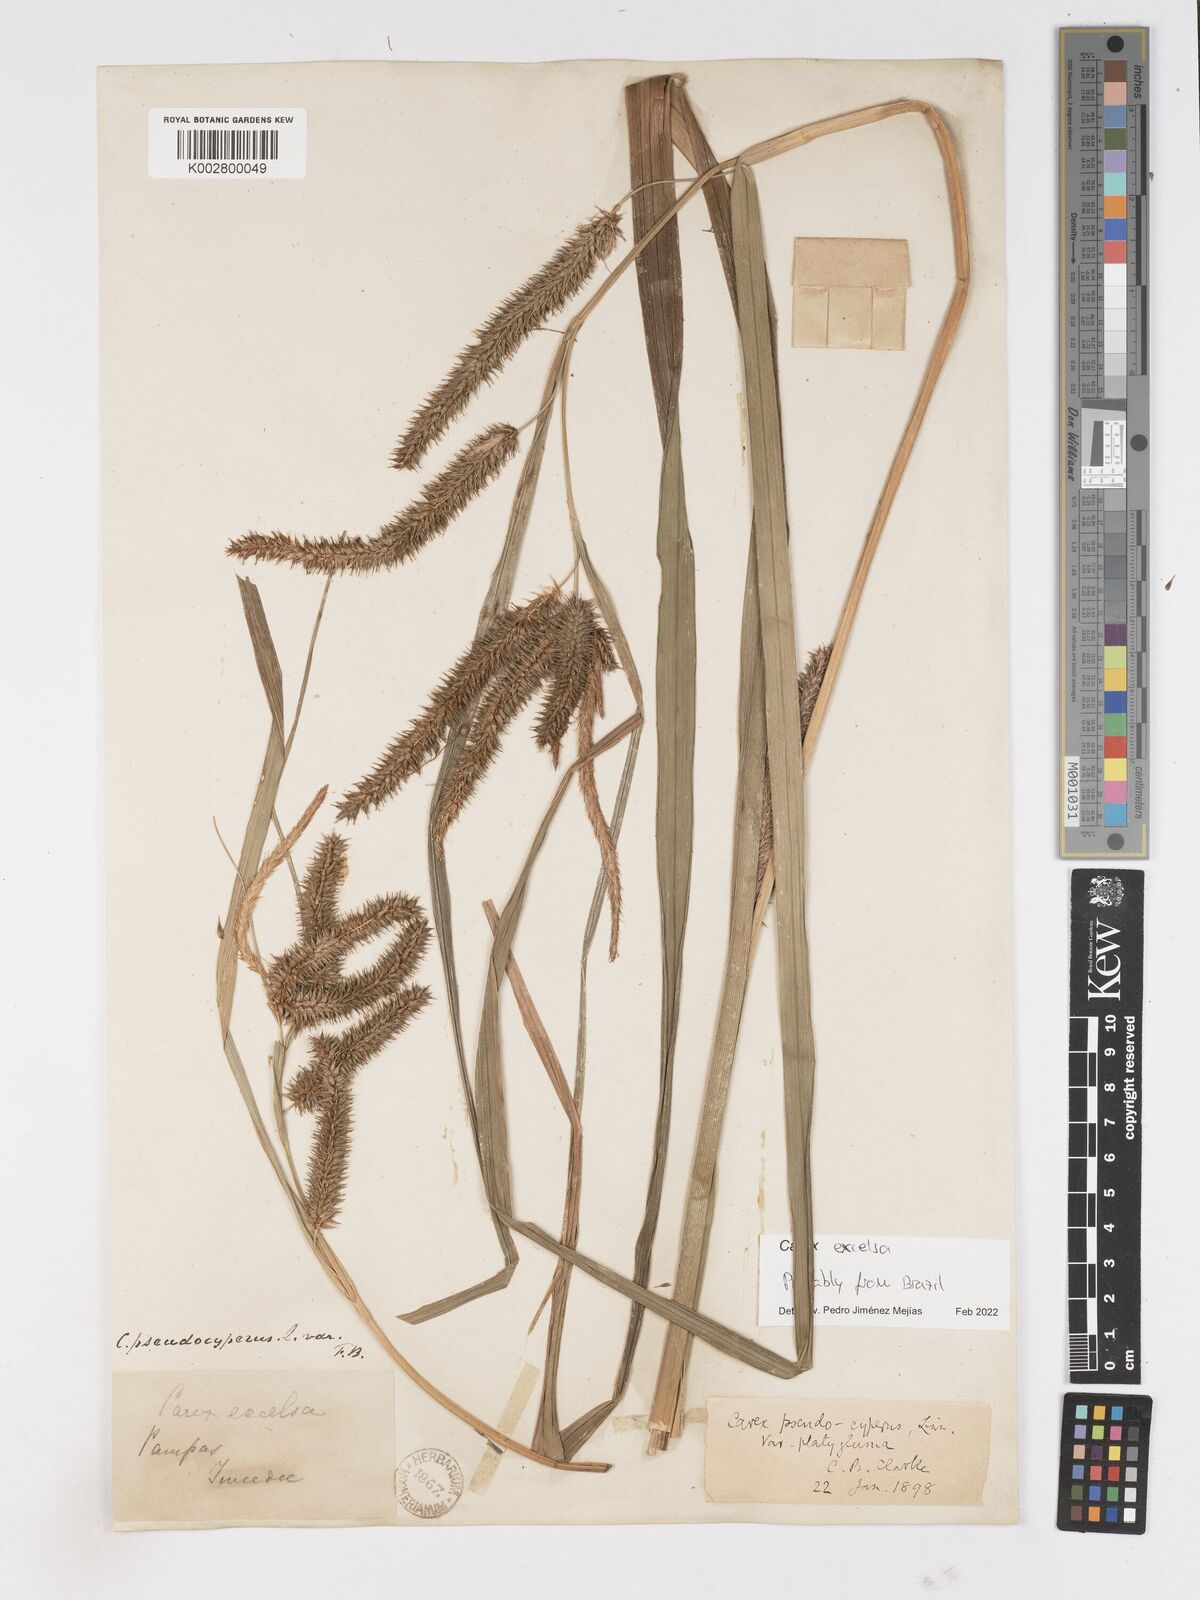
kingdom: Plantae
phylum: Tracheophyta
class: Liliopsida
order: Poales
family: Cyperaceae
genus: Carex
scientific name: Carex excelsa
